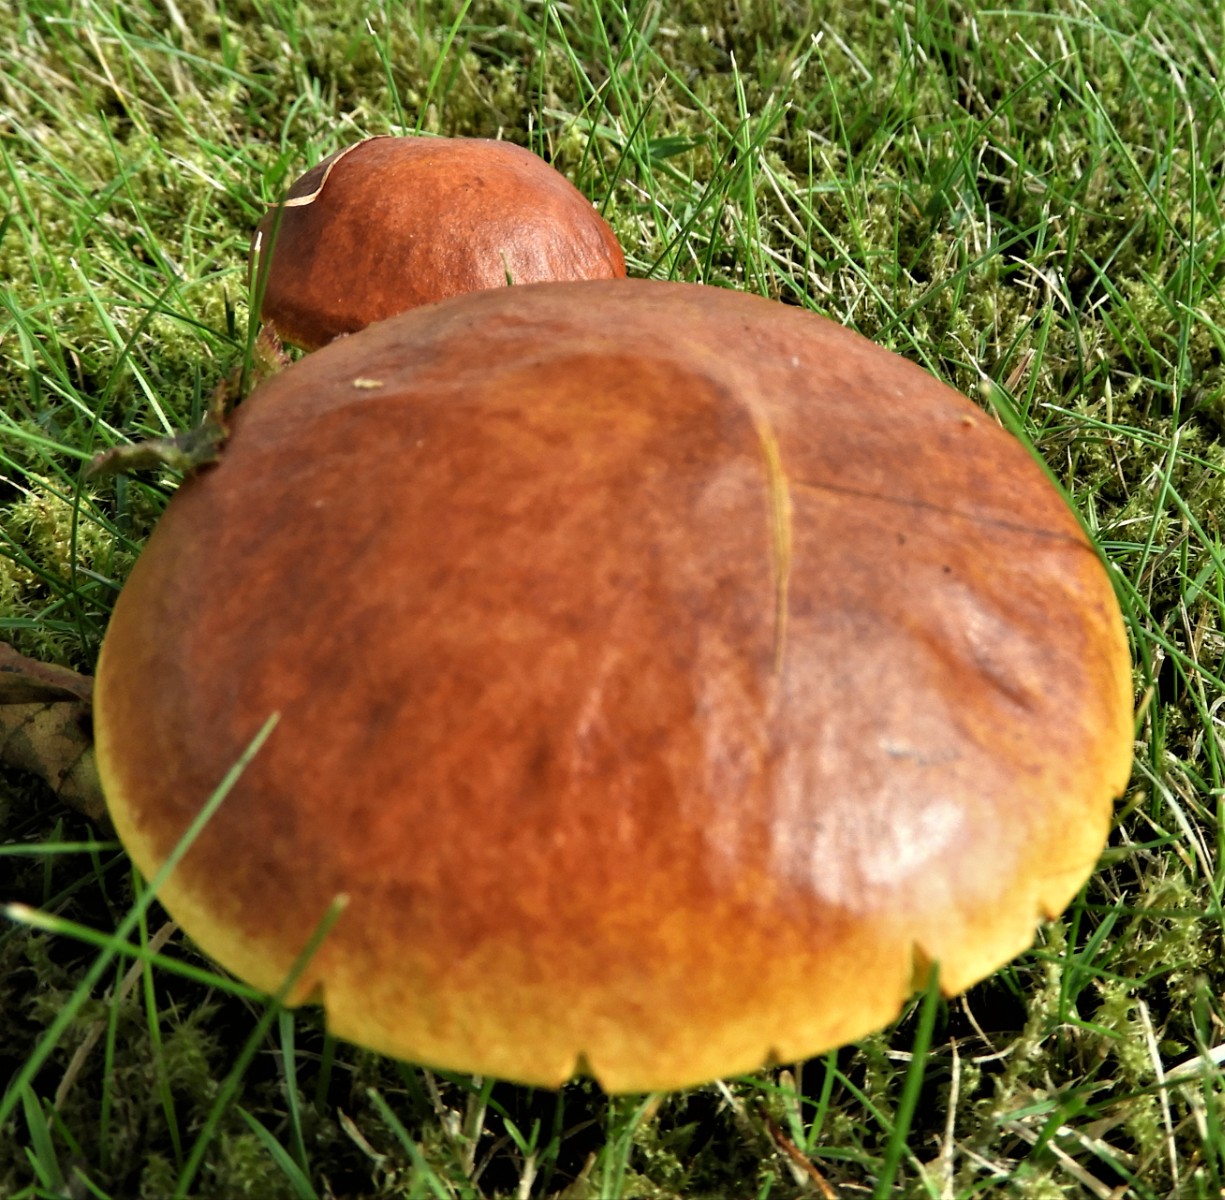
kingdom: Fungi
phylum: Basidiomycota
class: Agaricomycetes
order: Boletales
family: Suillaceae
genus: Suillus
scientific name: Suillus grevillei
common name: lærke-slimrørhat
